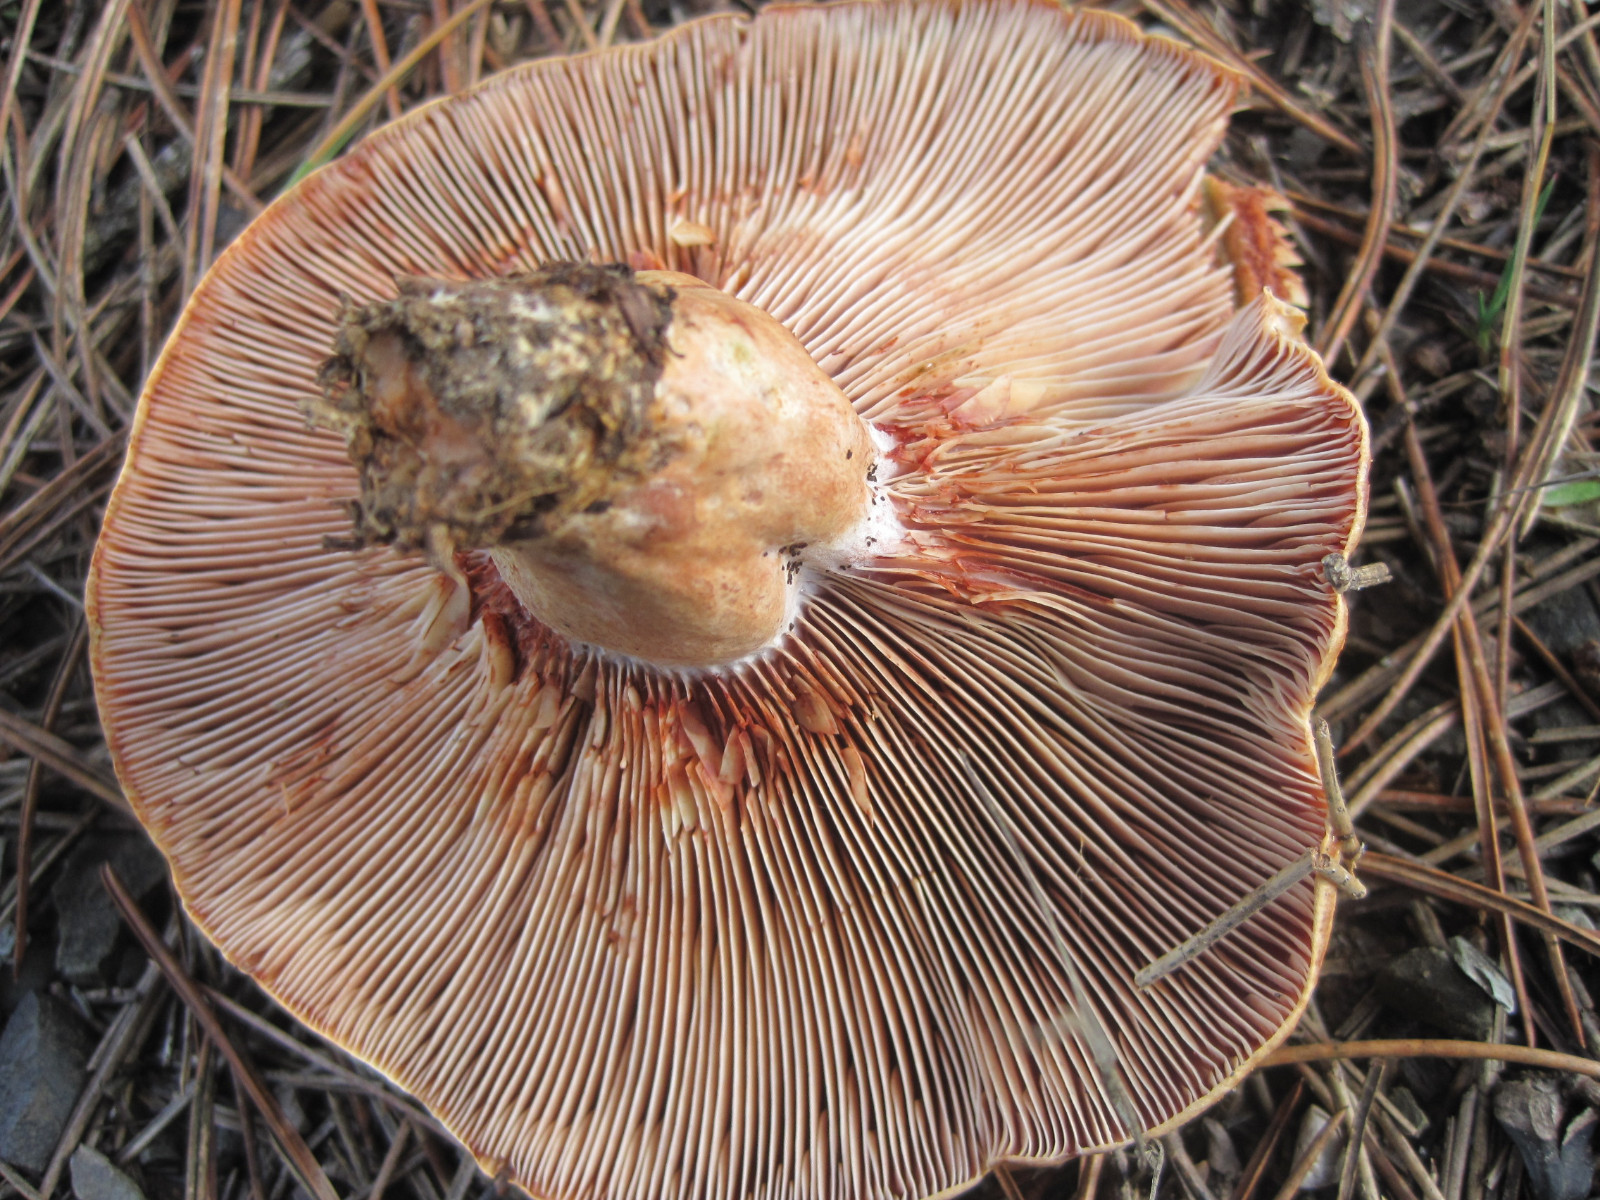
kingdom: Fungi
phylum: Basidiomycota
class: Agaricomycetes
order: Russulales
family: Russulaceae
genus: Lactarius
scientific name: Lactarius sanguifluus
